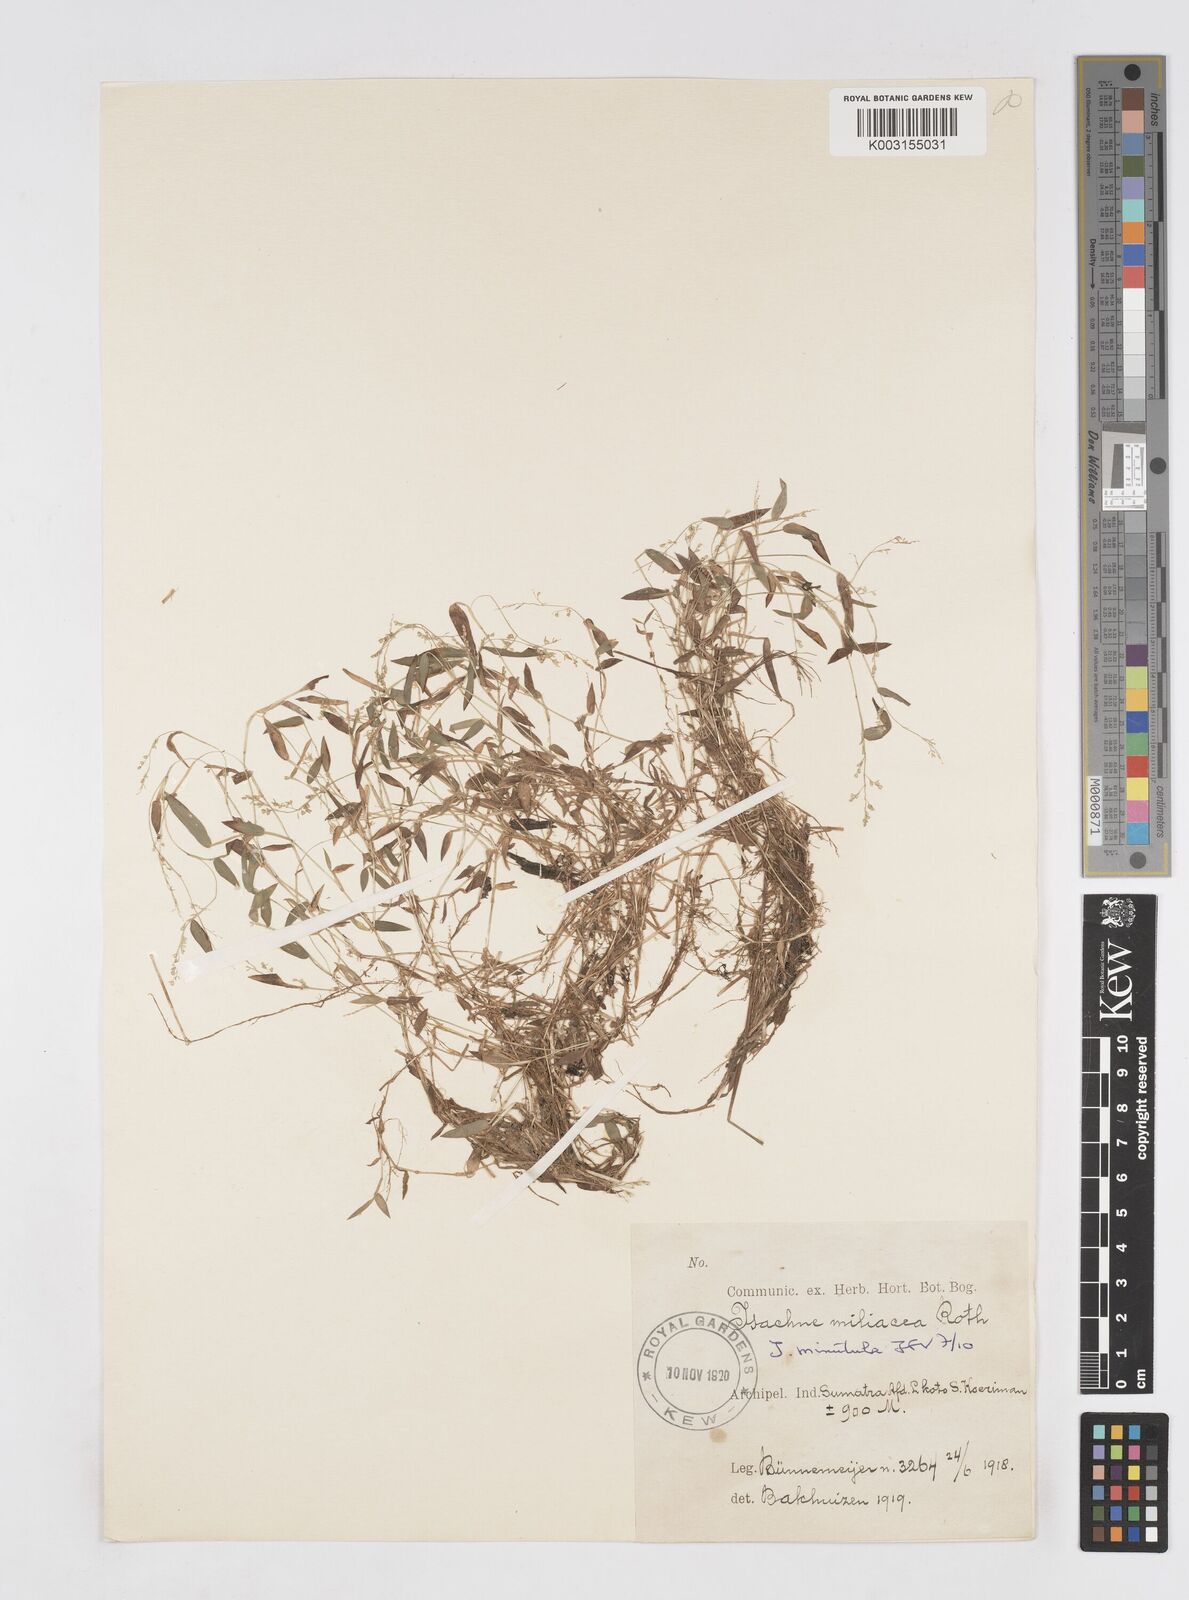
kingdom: Plantae
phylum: Tracheophyta
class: Liliopsida
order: Poales
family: Poaceae
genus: Isachne
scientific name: Isachne globosa
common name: Swamp millet
